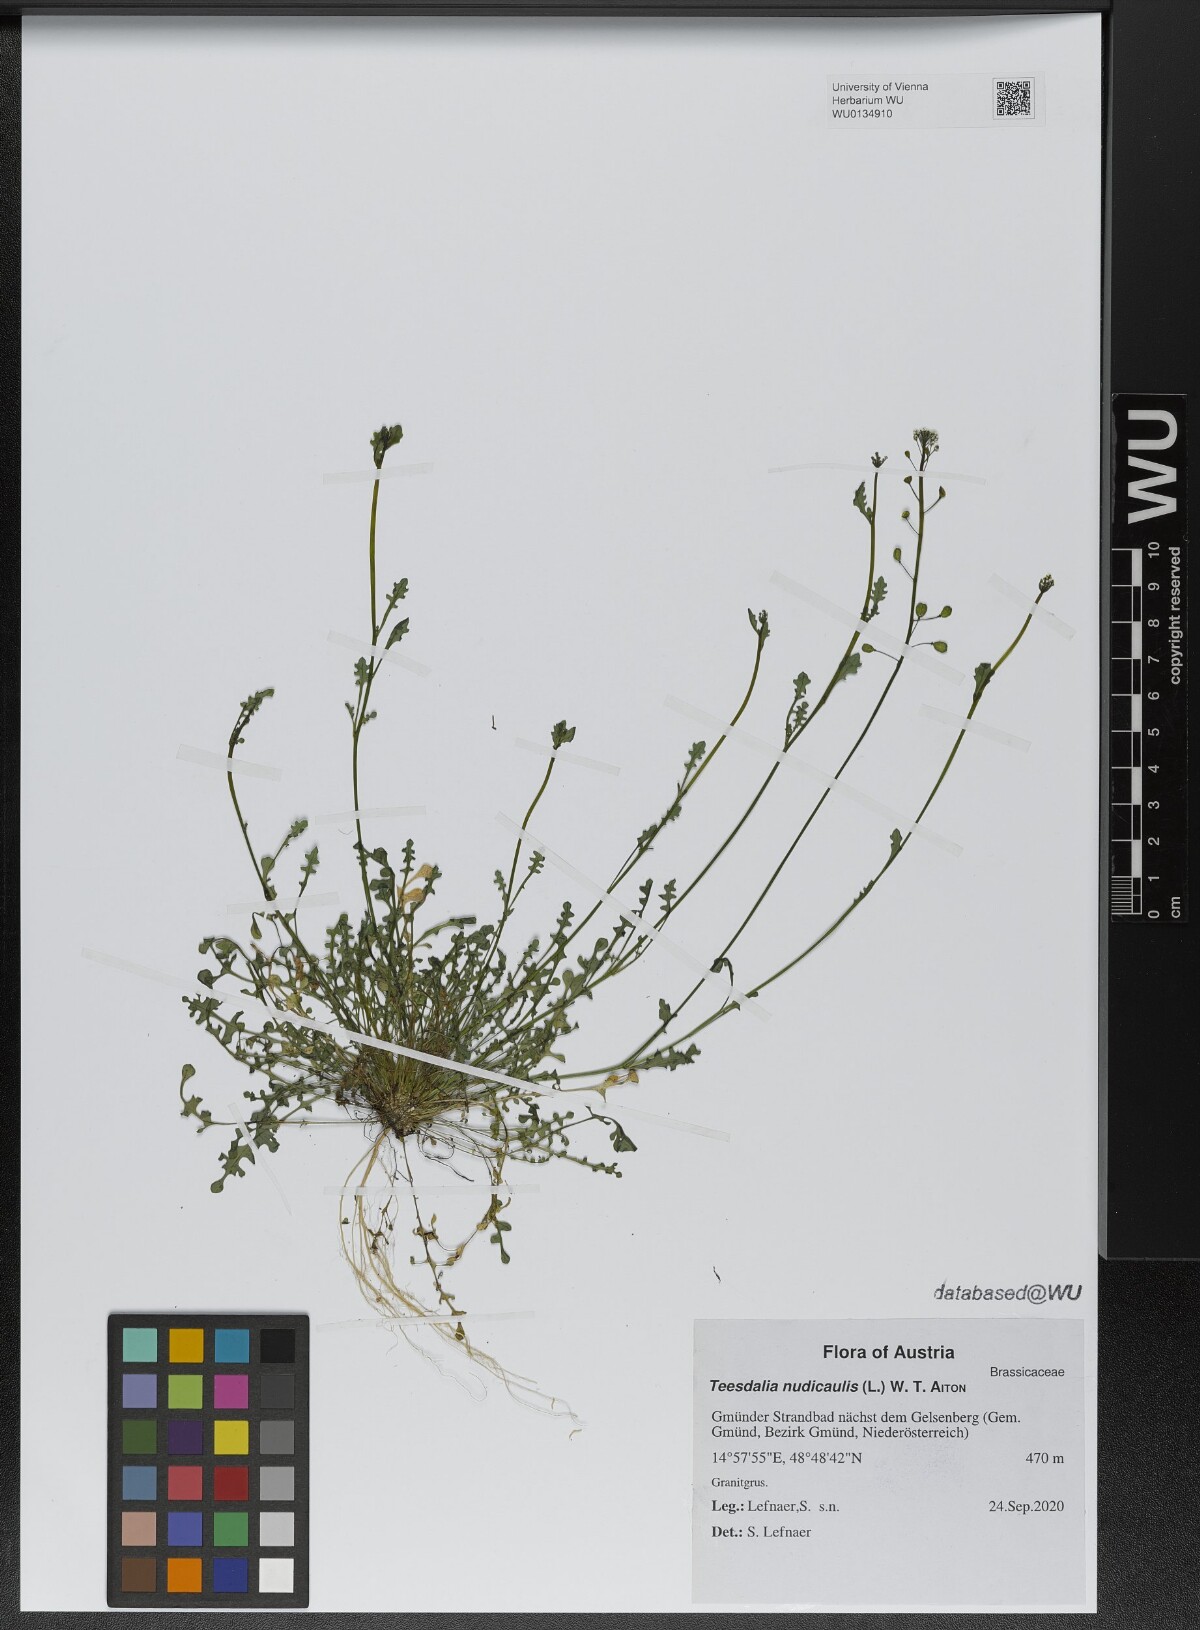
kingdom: Plantae
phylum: Tracheophyta
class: Magnoliopsida
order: Brassicales
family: Brassicaceae
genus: Teesdalia
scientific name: Teesdalia nudicaulis
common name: Shepherd's cress
